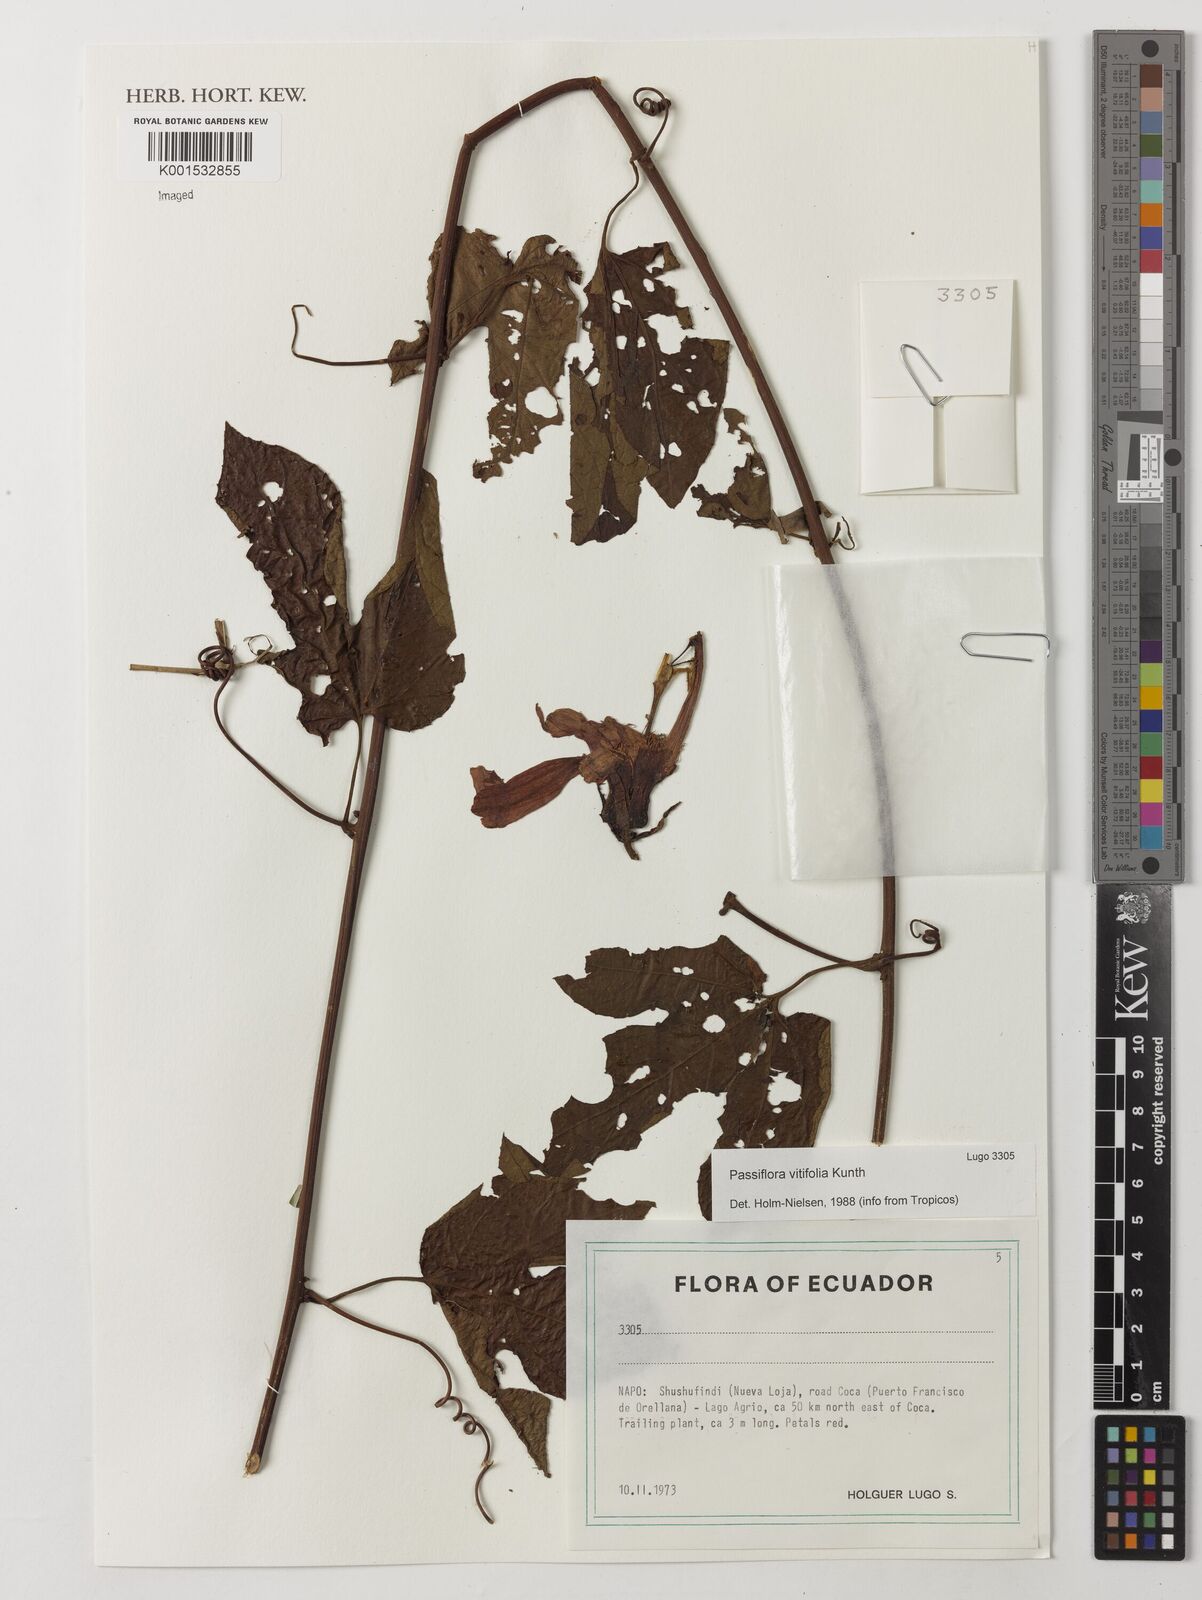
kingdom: Plantae
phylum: Tracheophyta
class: Magnoliopsida
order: Malpighiales
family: Passifloraceae
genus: Passiflora
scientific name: Passiflora vitifolia
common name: Perfumed passionflower
